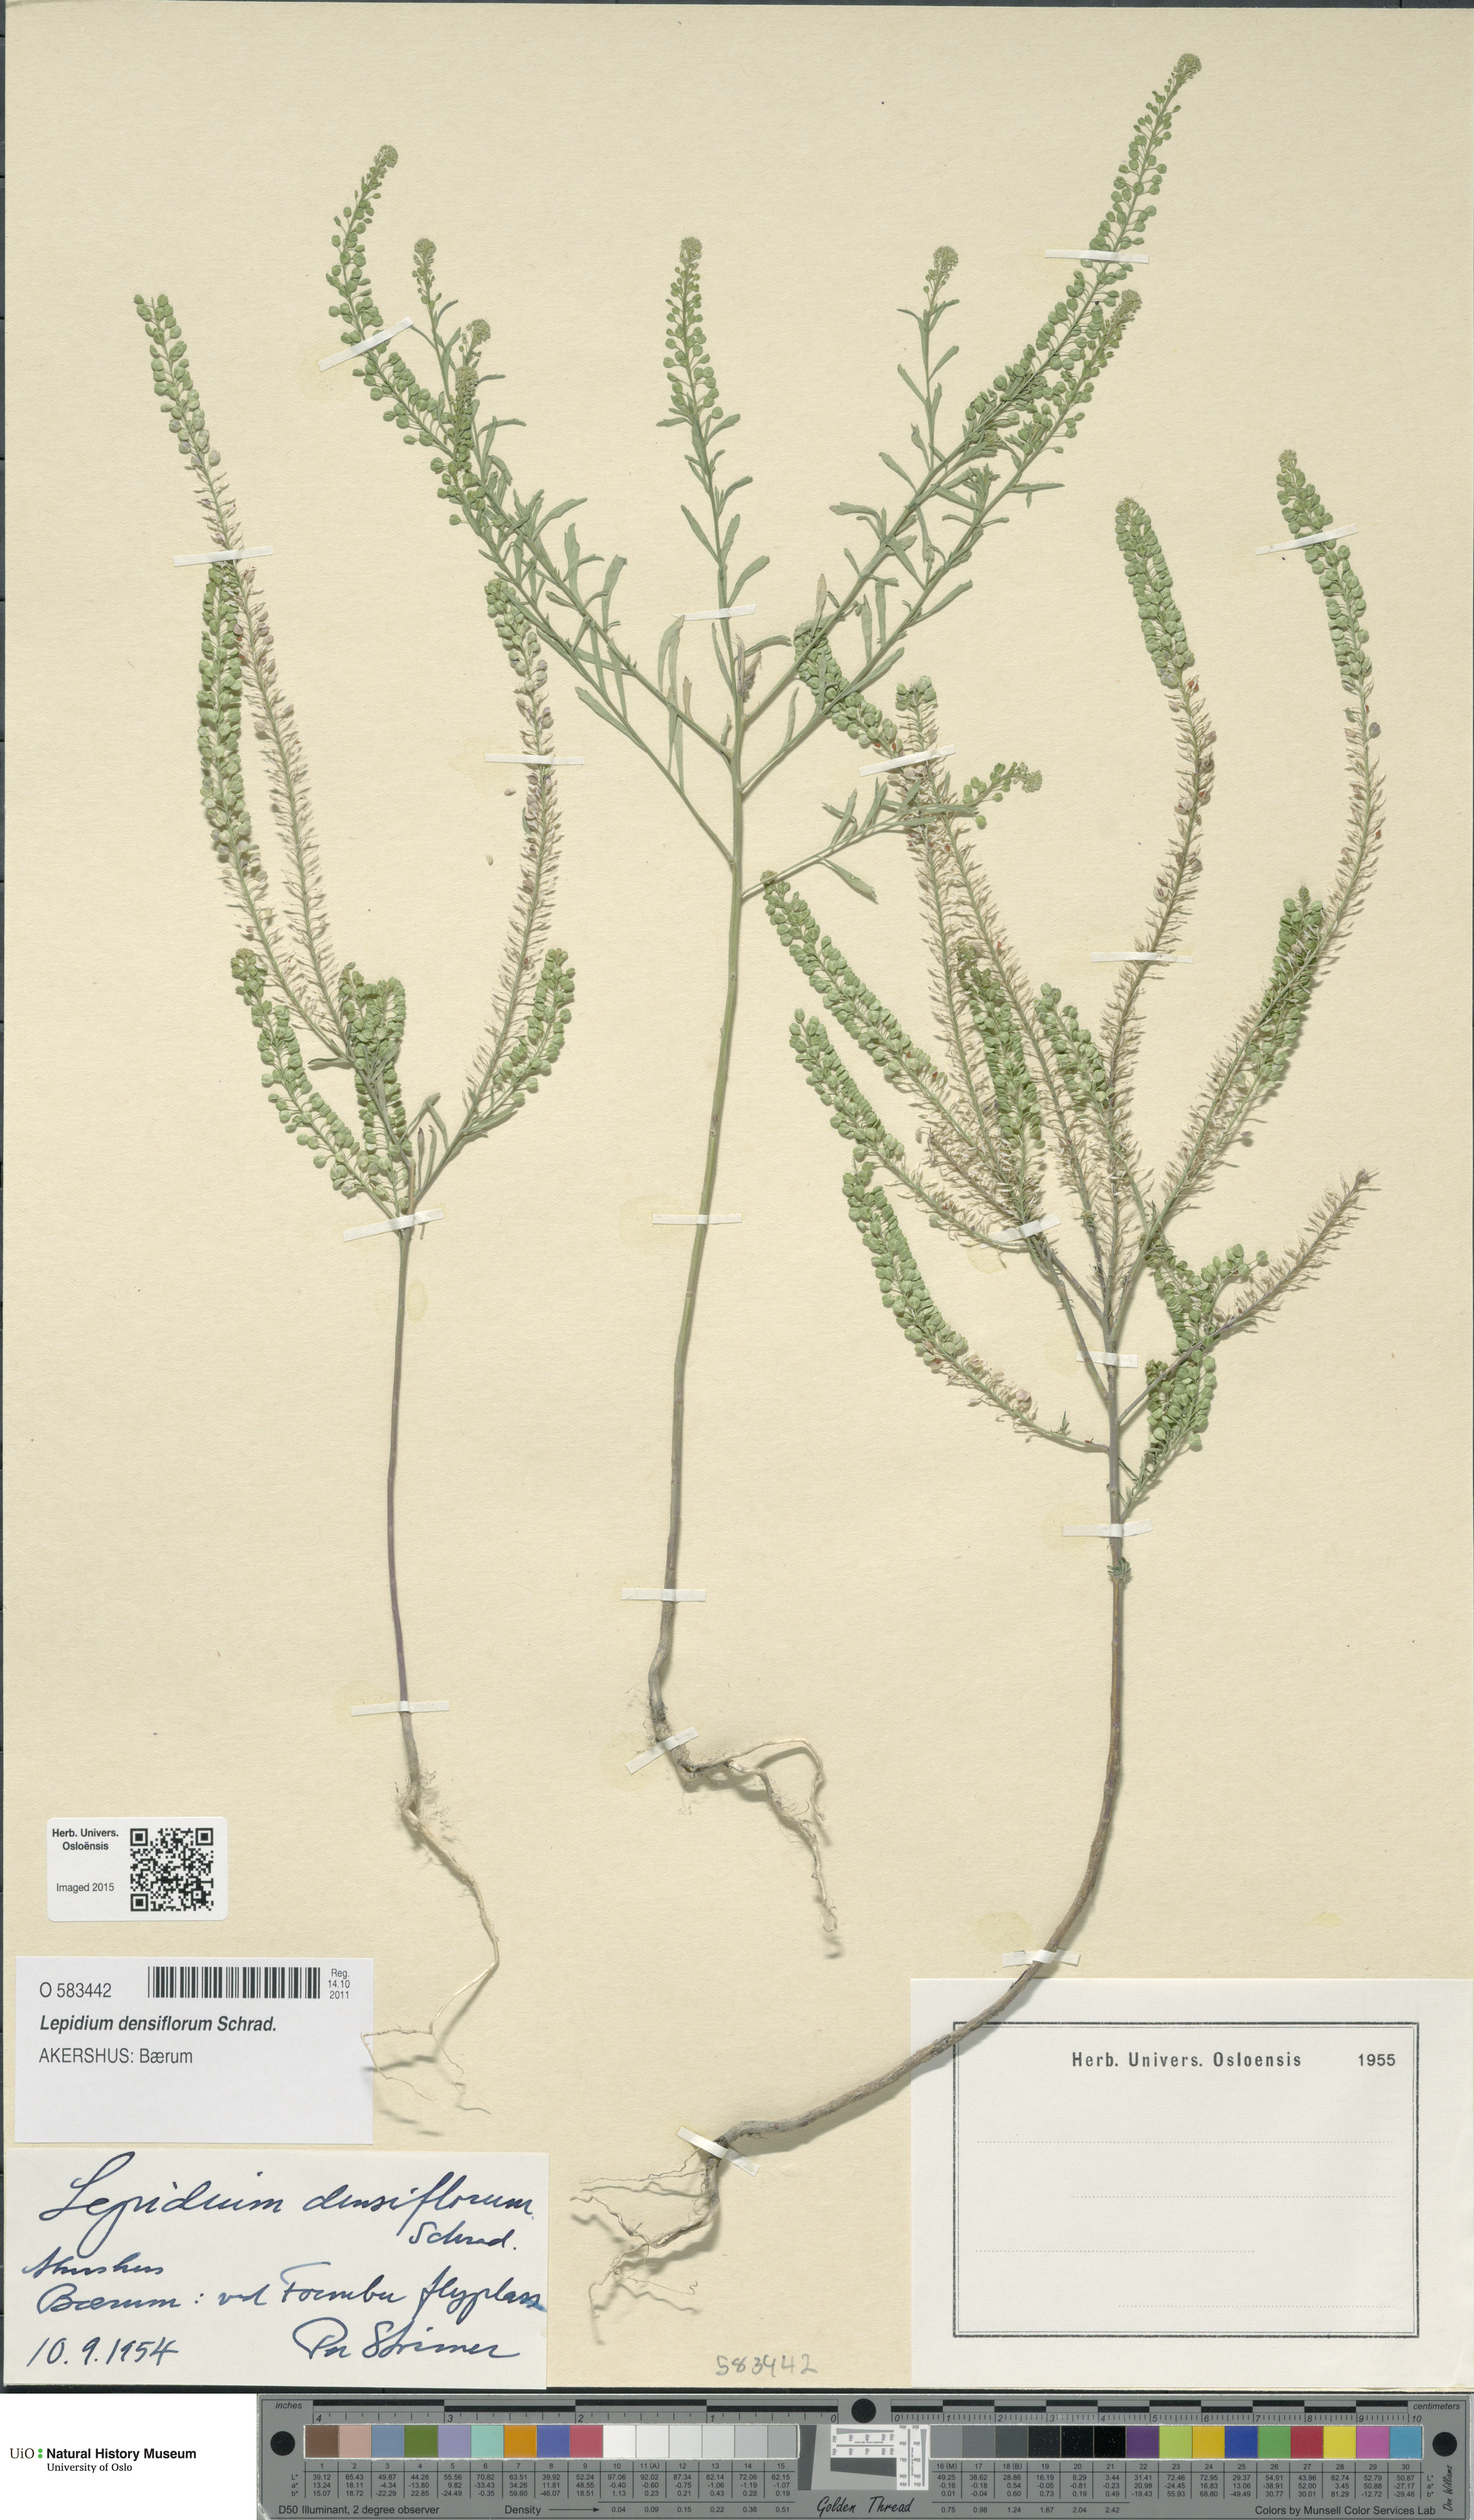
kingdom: Plantae
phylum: Tracheophyta
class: Magnoliopsida
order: Brassicales
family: Brassicaceae
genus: Lepidium
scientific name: Lepidium densiflorum
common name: Miner's pepperwort
